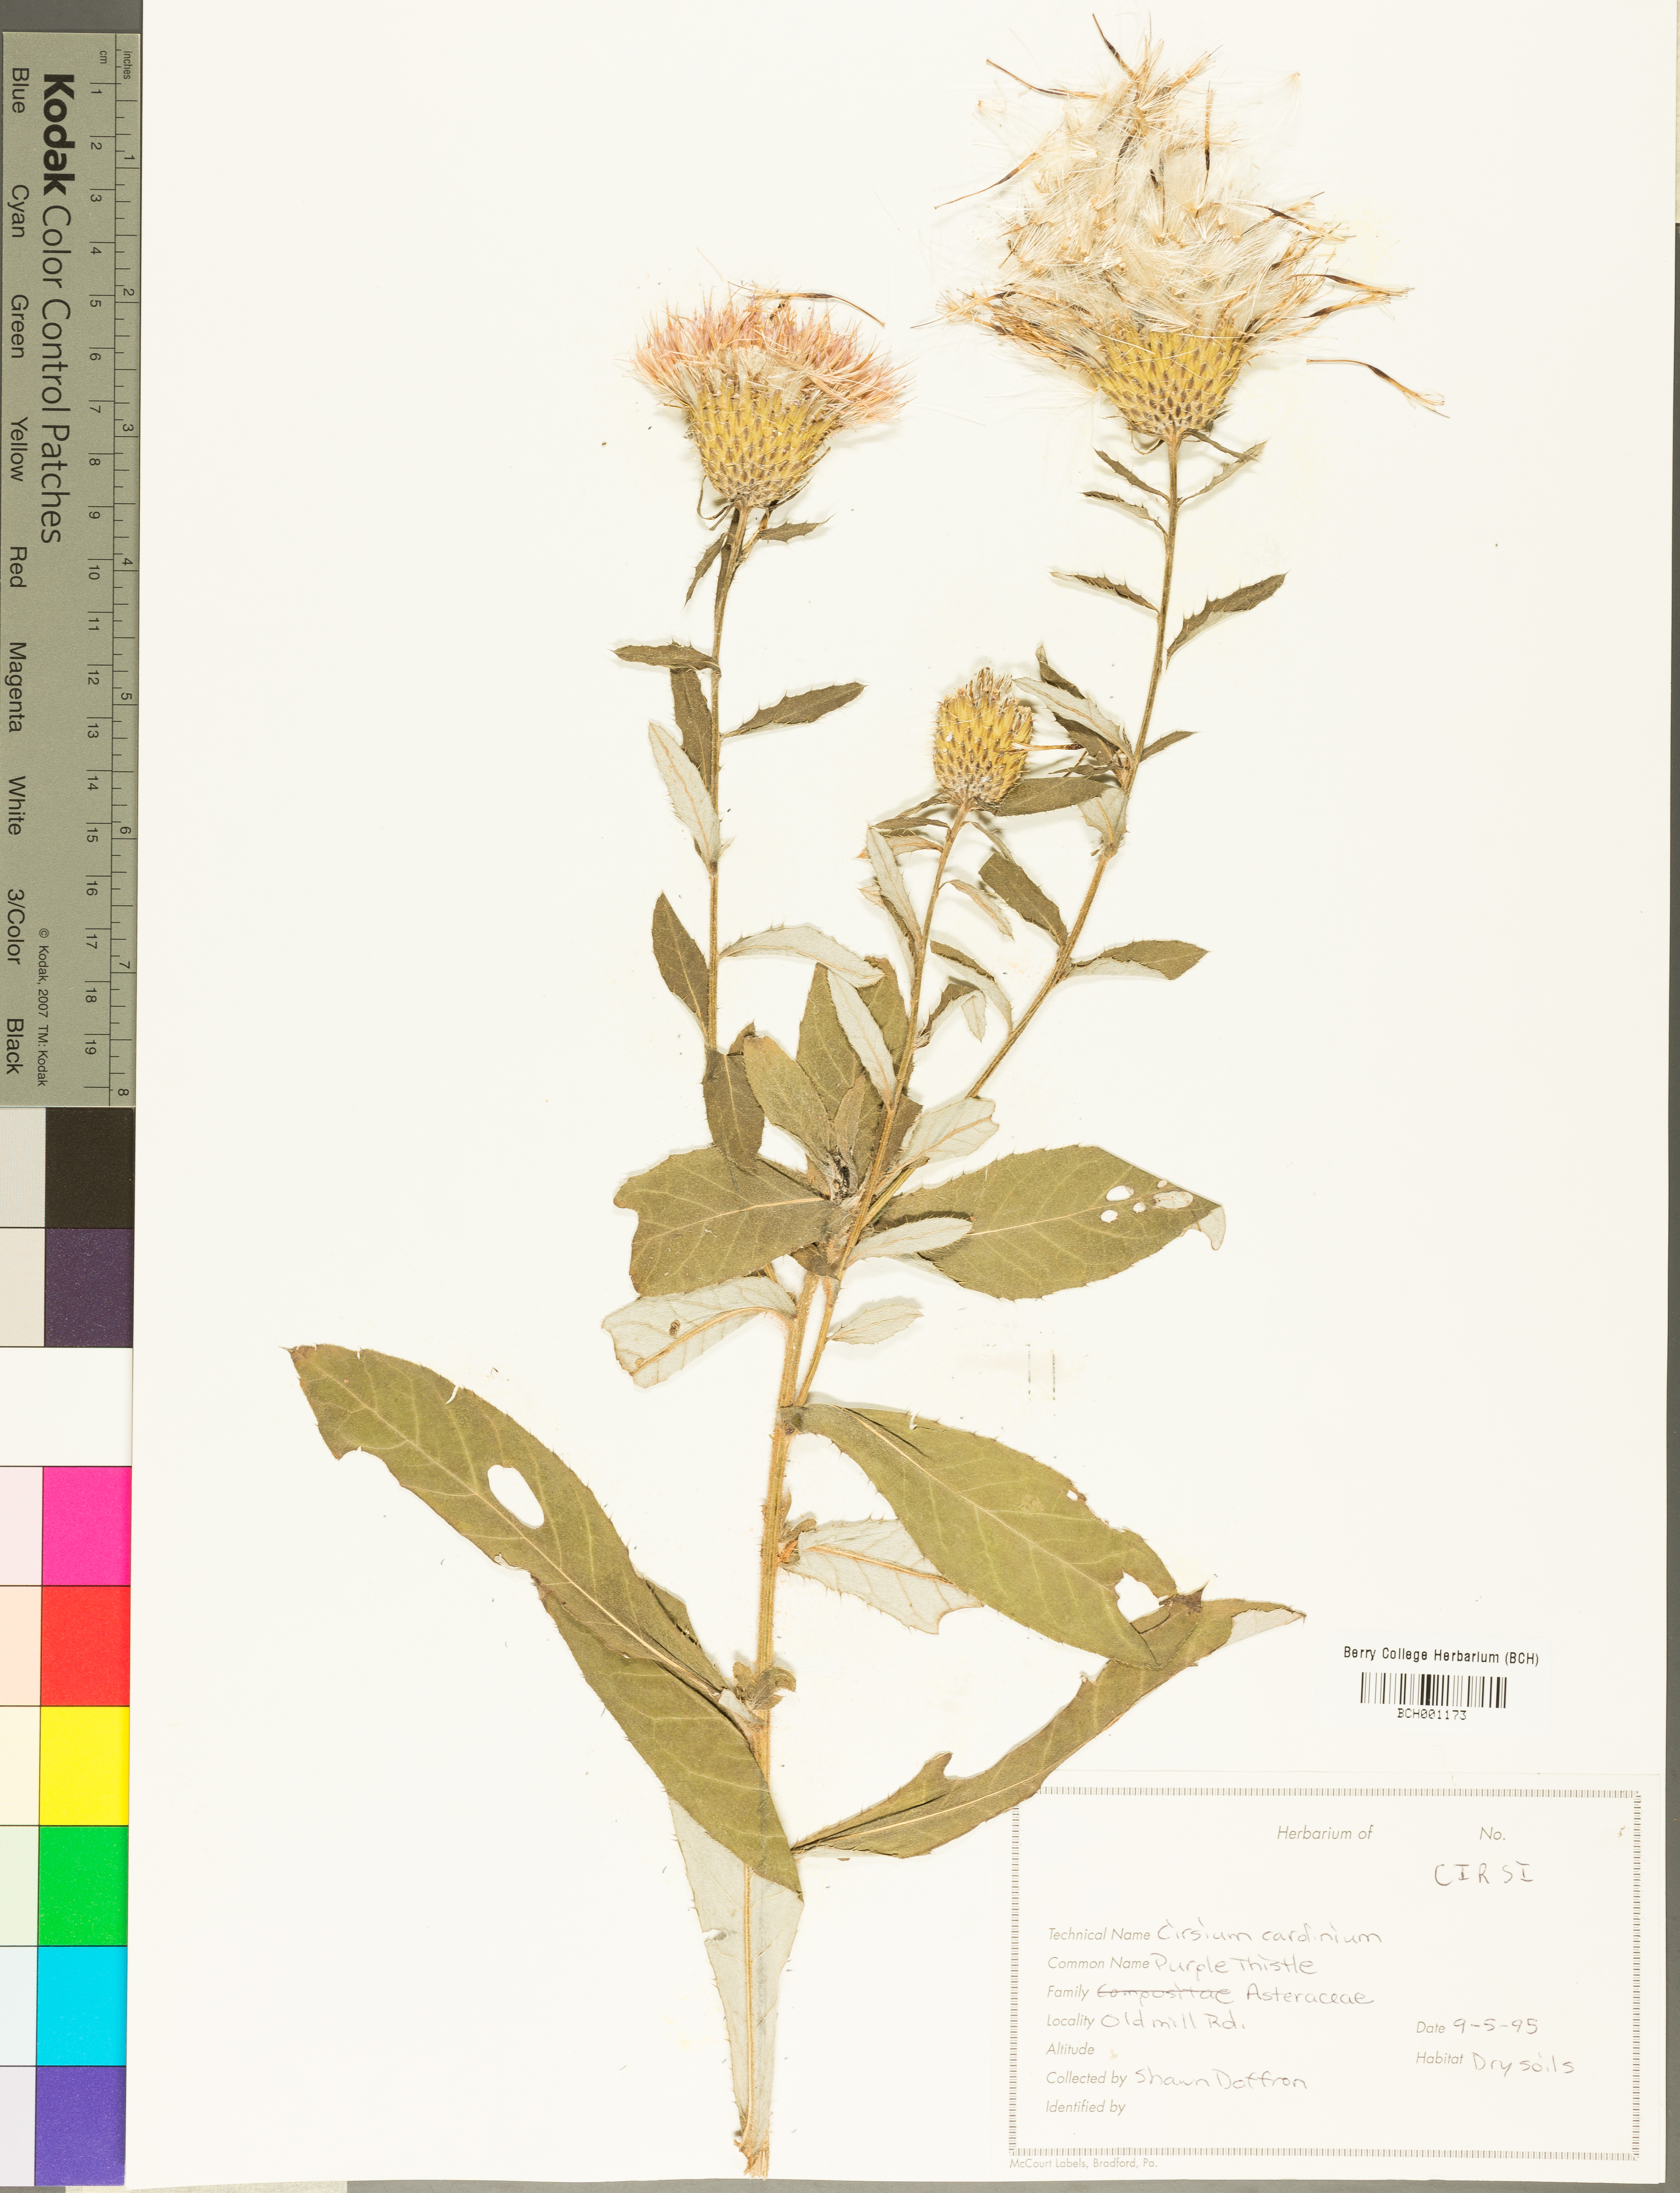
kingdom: Plantae
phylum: Tracheophyta
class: Magnoliopsida
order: Asterales
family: Asteraceae
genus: Cirsium
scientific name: Cirsium
